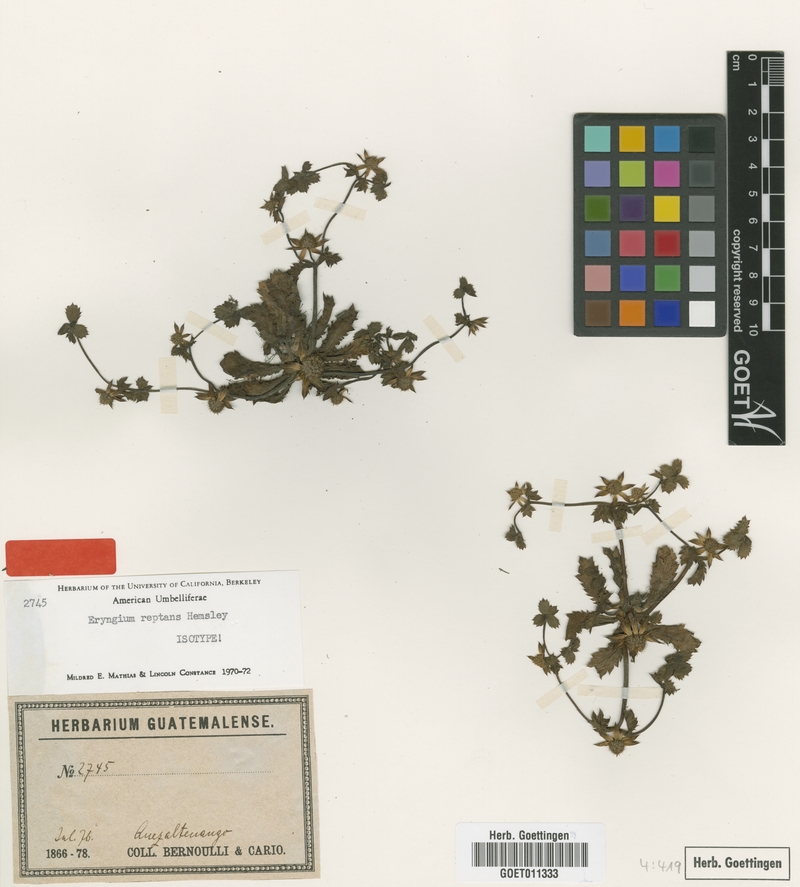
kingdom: Plantae
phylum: Tracheophyta
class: Magnoliopsida
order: Apiales
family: Apiaceae
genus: Eryngium
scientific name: Eryngium carlinae
